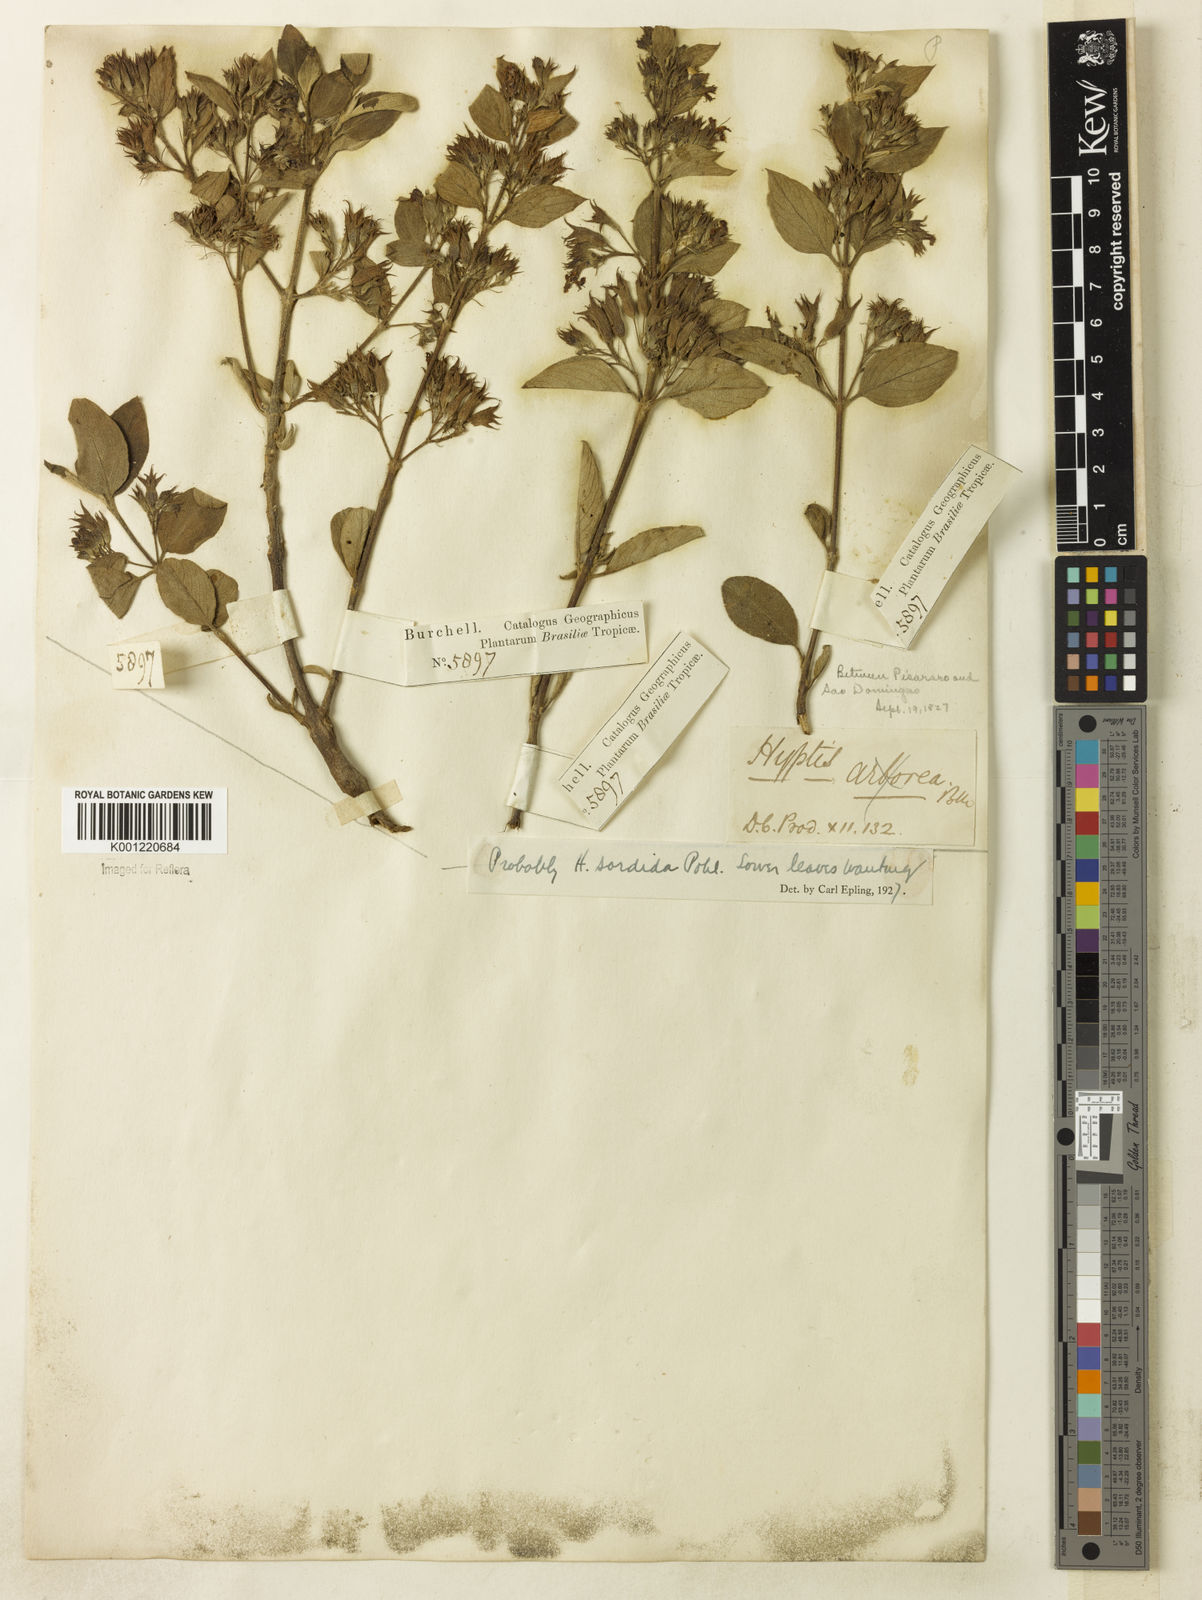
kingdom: Plantae
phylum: Tracheophyta
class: Magnoliopsida
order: Lamiales
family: Lamiaceae
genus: Hyptidendron
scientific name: Hyptidendron canum
